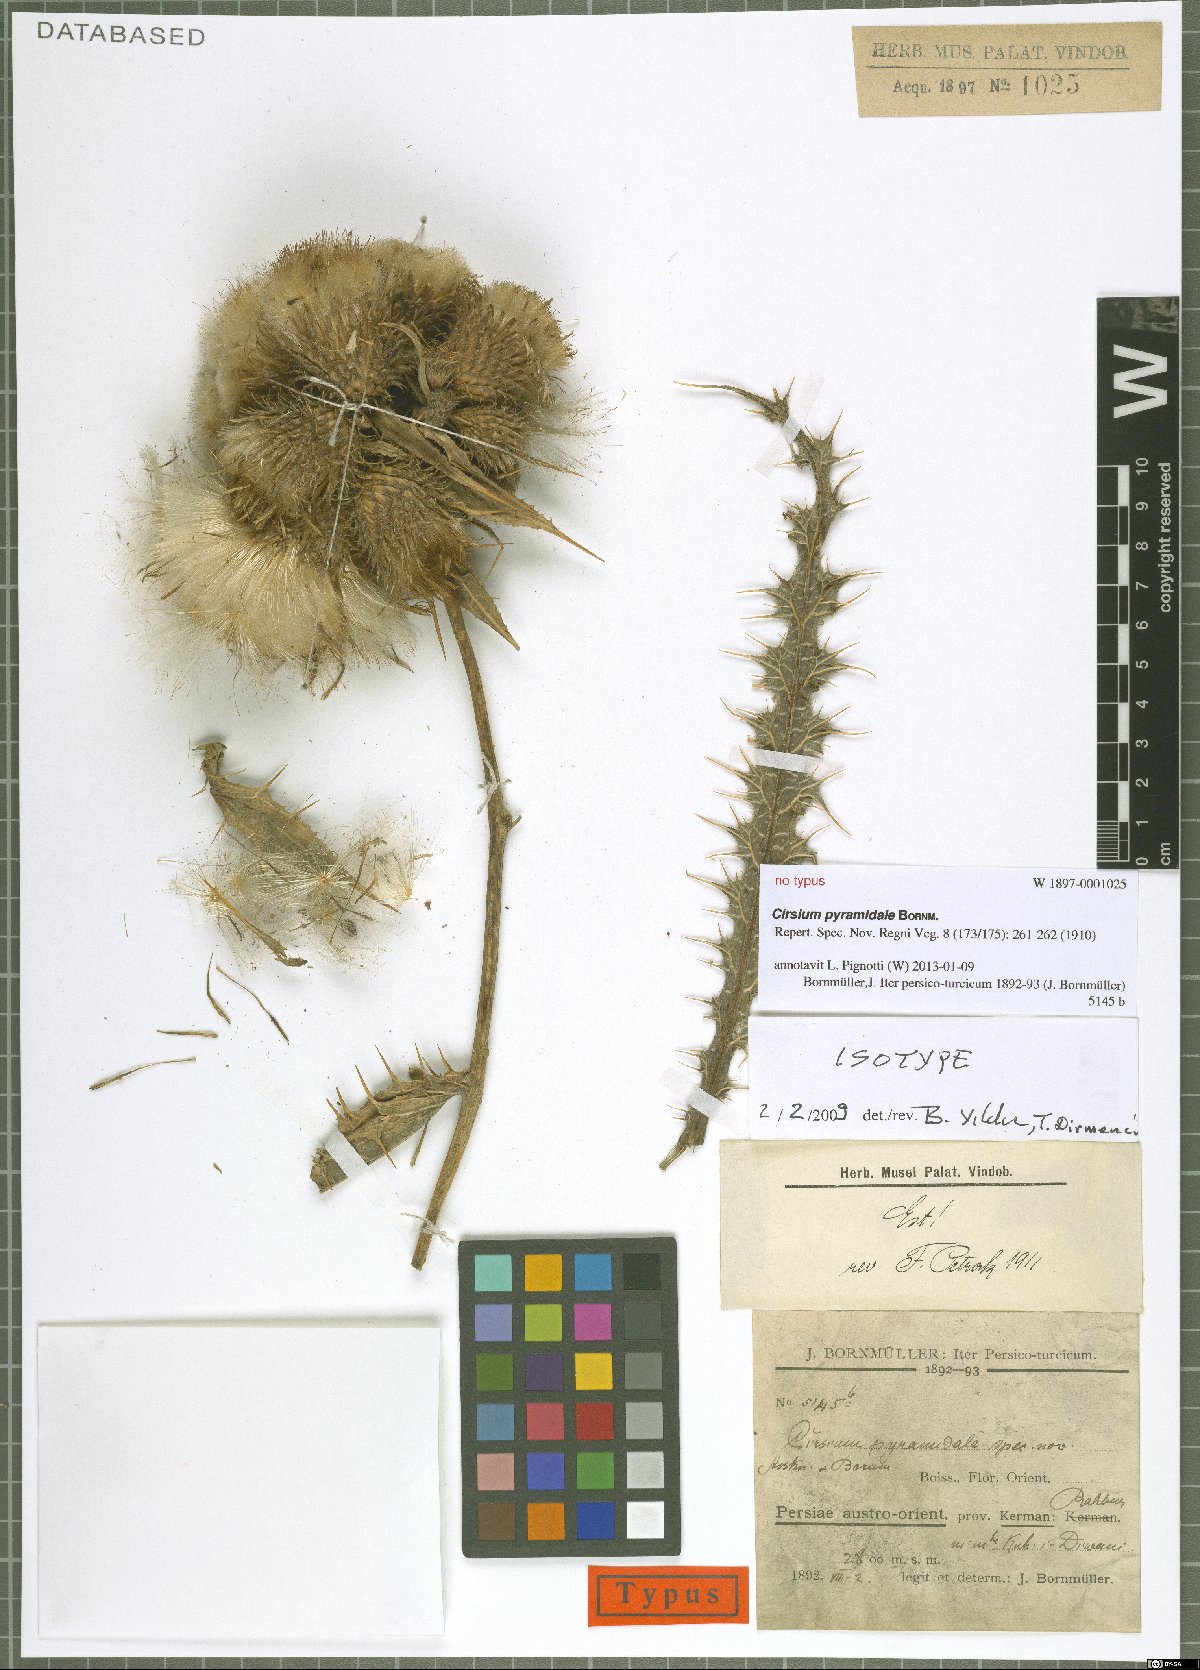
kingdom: Plantae
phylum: Tracheophyta
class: Magnoliopsida
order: Asterales
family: Asteraceae
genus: Lophiolepis
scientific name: Lophiolepis pyramidalis
